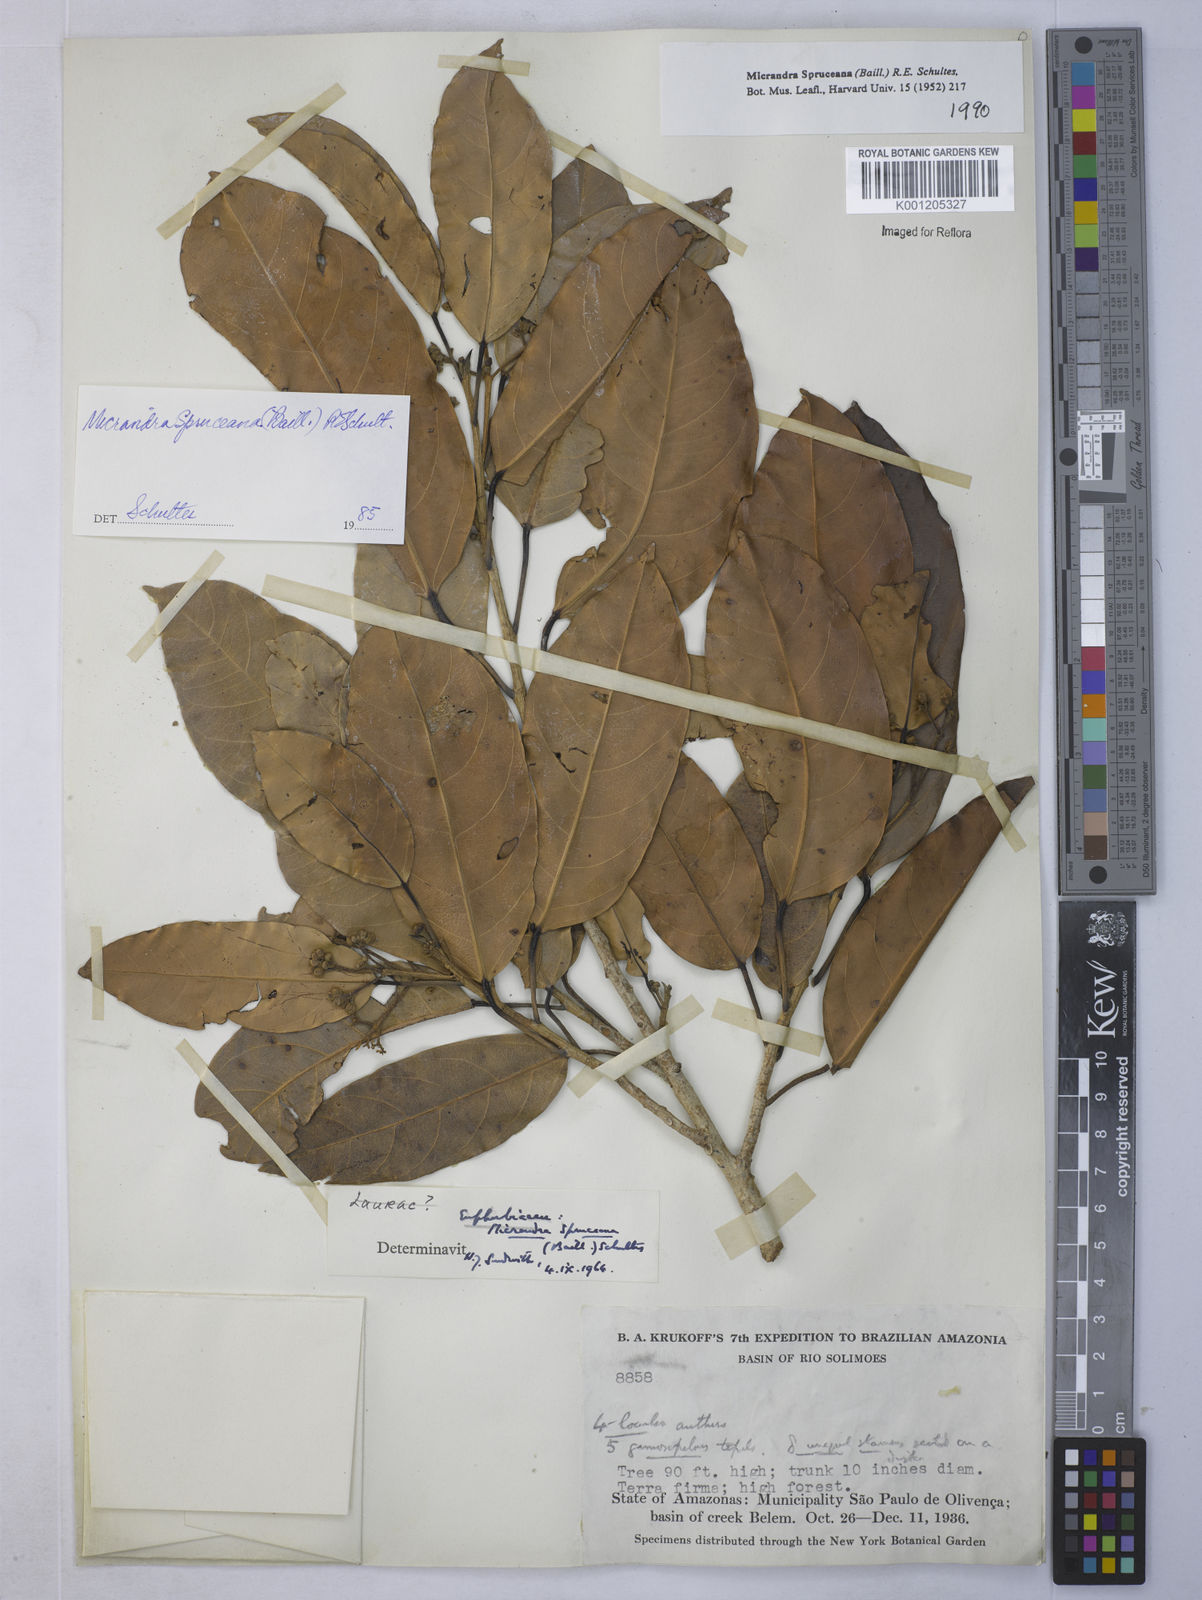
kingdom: Plantae
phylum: Tracheophyta
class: Magnoliopsida
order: Malpighiales
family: Euphorbiaceae
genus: Micrandra
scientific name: Micrandra spruceana
